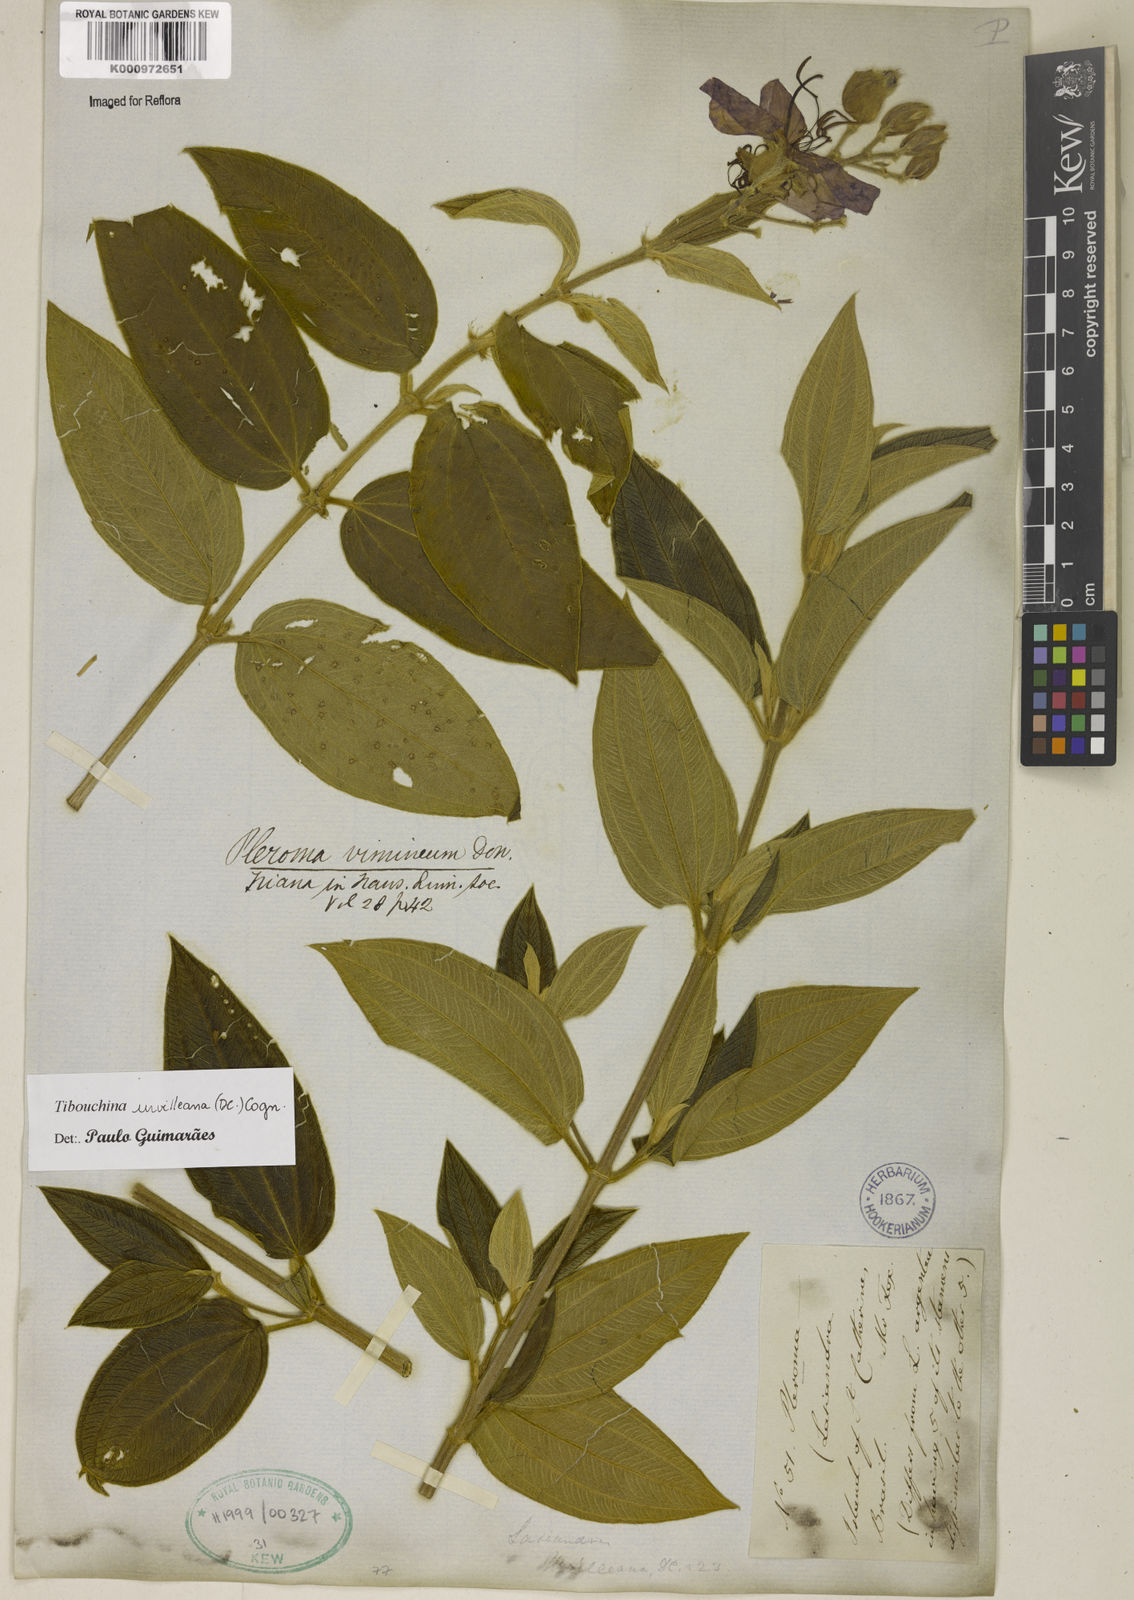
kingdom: Plantae
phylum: Tracheophyta
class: Magnoliopsida
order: Myrtales
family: Melastomataceae
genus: Pleroma
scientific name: Pleroma urvilleanum
